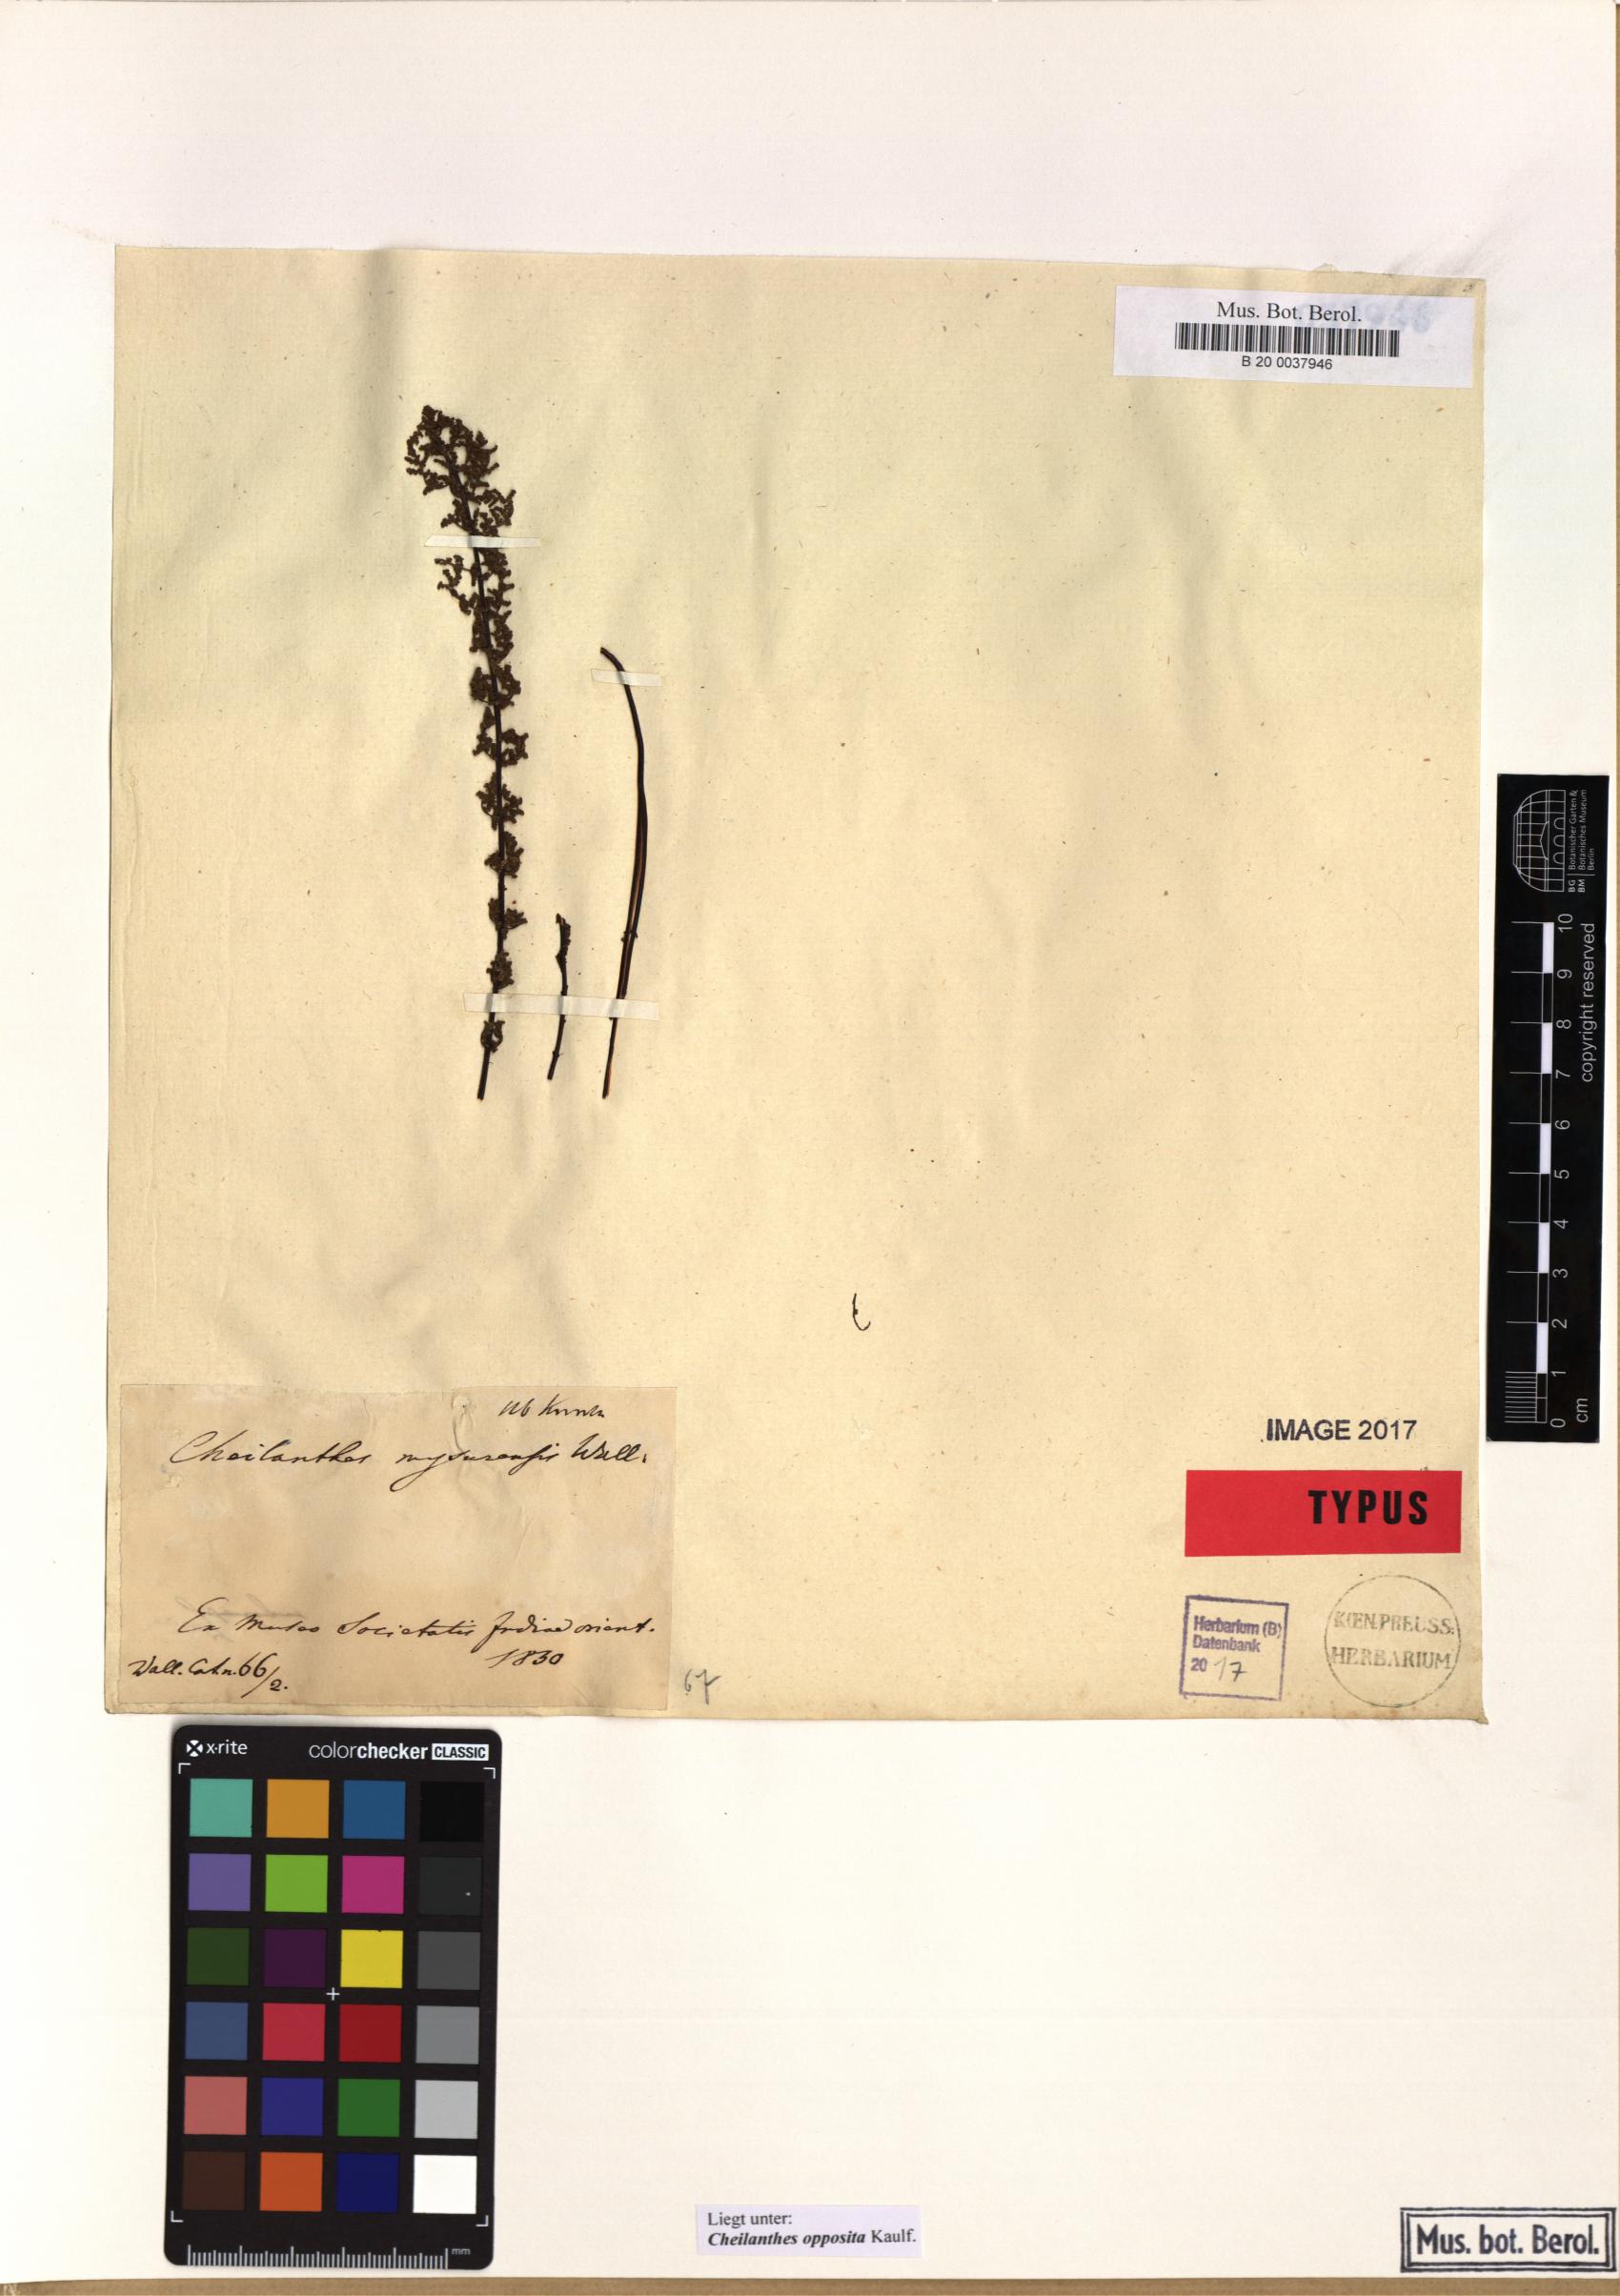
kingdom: Plantae
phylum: Tracheophyta
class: Polypodiopsida
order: Polypodiales
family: Pteridaceae
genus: Oeosporangium
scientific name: Oeosporangium elegans
